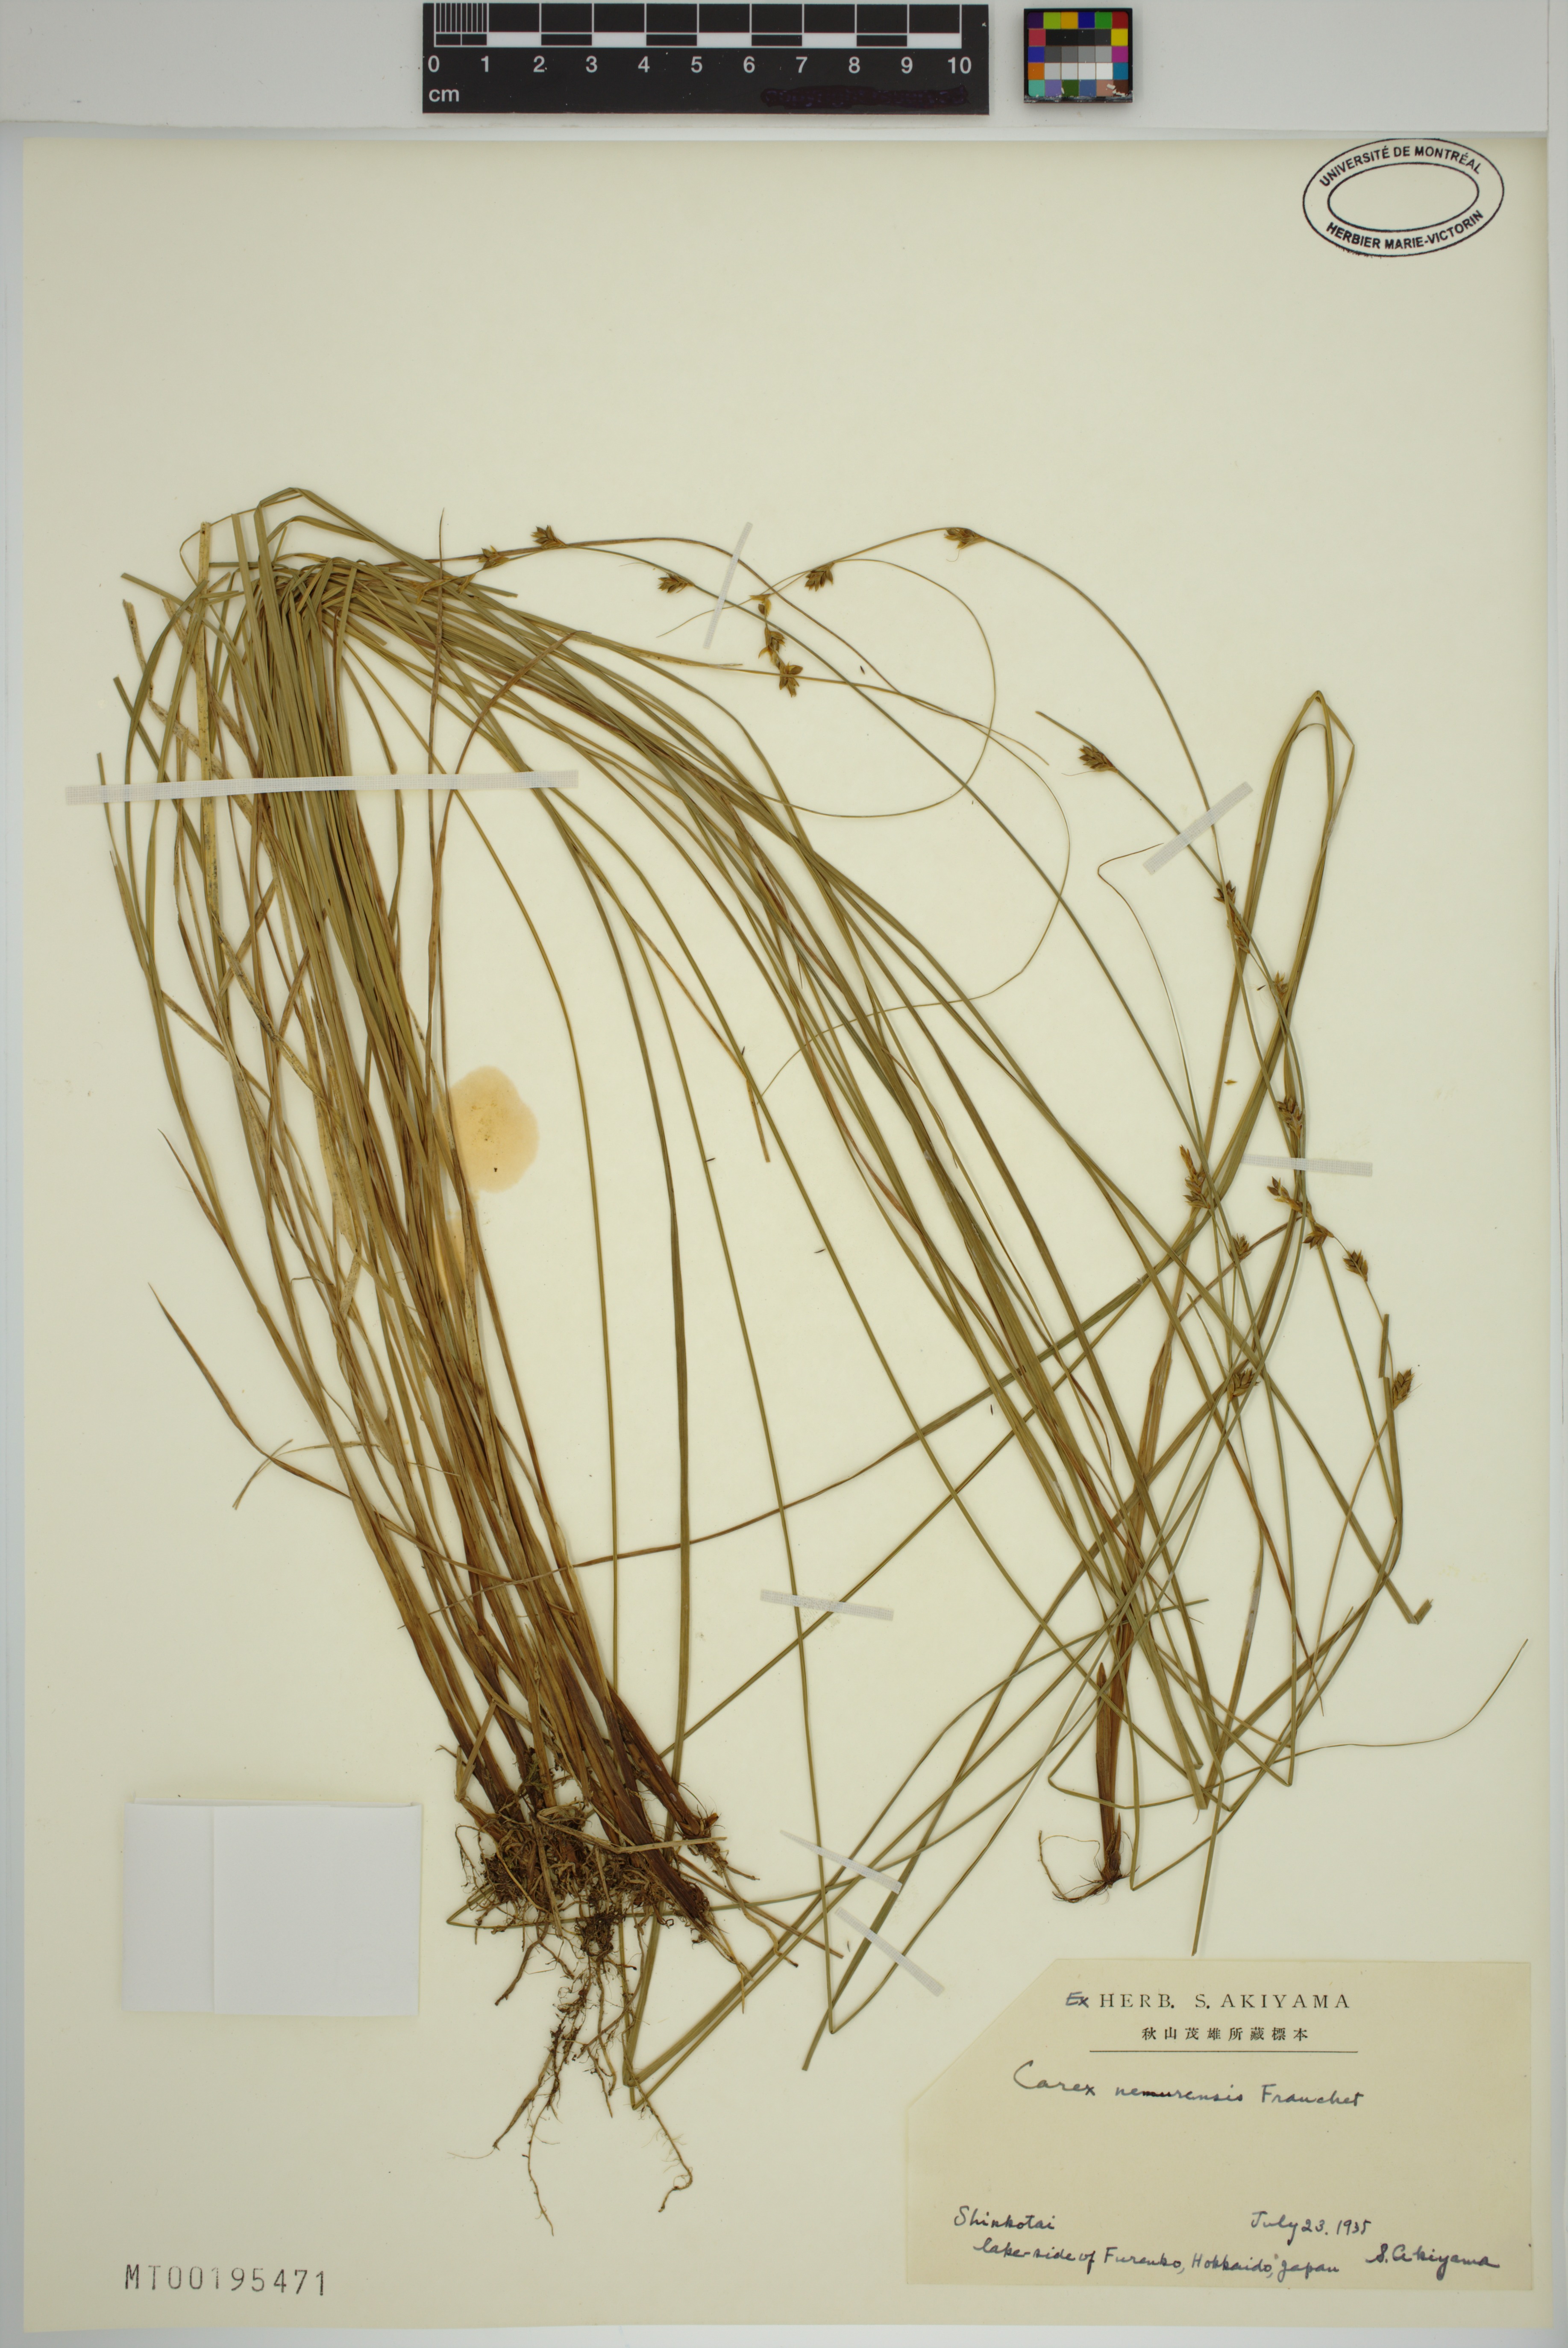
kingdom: Plantae
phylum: Tracheophyta
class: Liliopsida
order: Poales
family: Cyperaceae
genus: Carex
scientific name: Carex nemurensis
